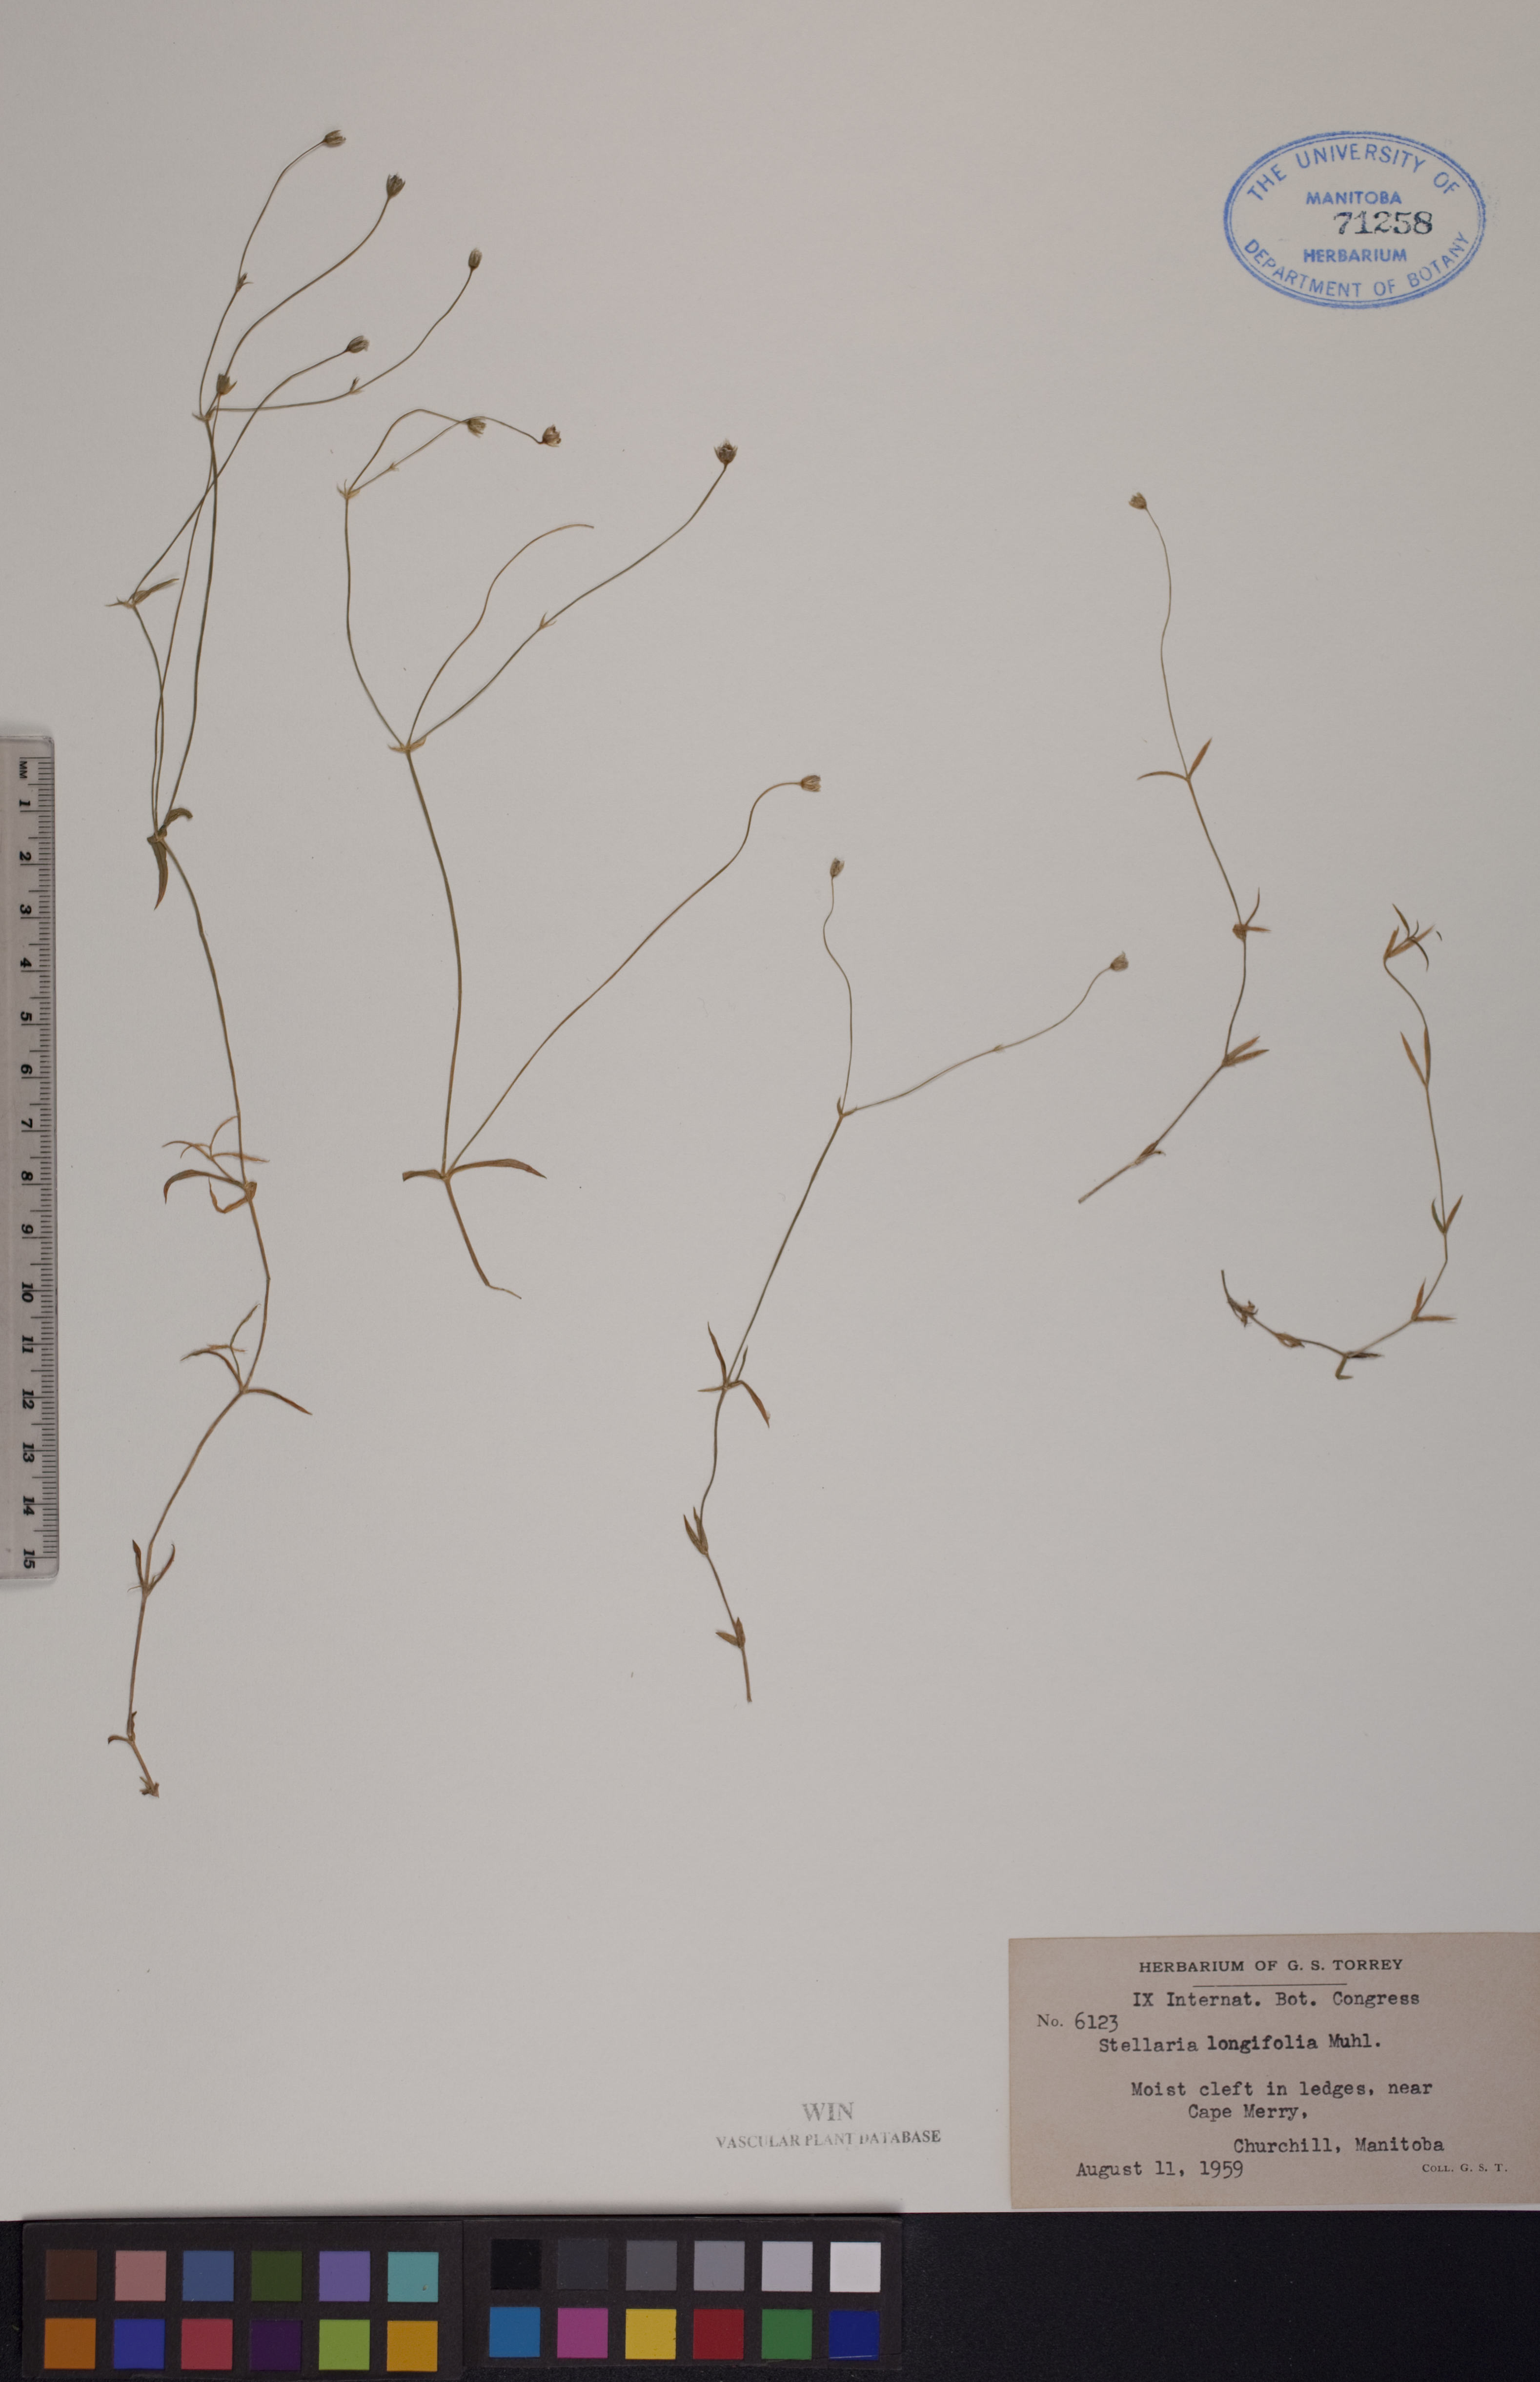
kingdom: Plantae
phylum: Tracheophyta
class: Magnoliopsida
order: Caryophyllales
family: Caryophyllaceae
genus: Stellaria
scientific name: Stellaria longifolia
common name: Long-leaved chickweed
